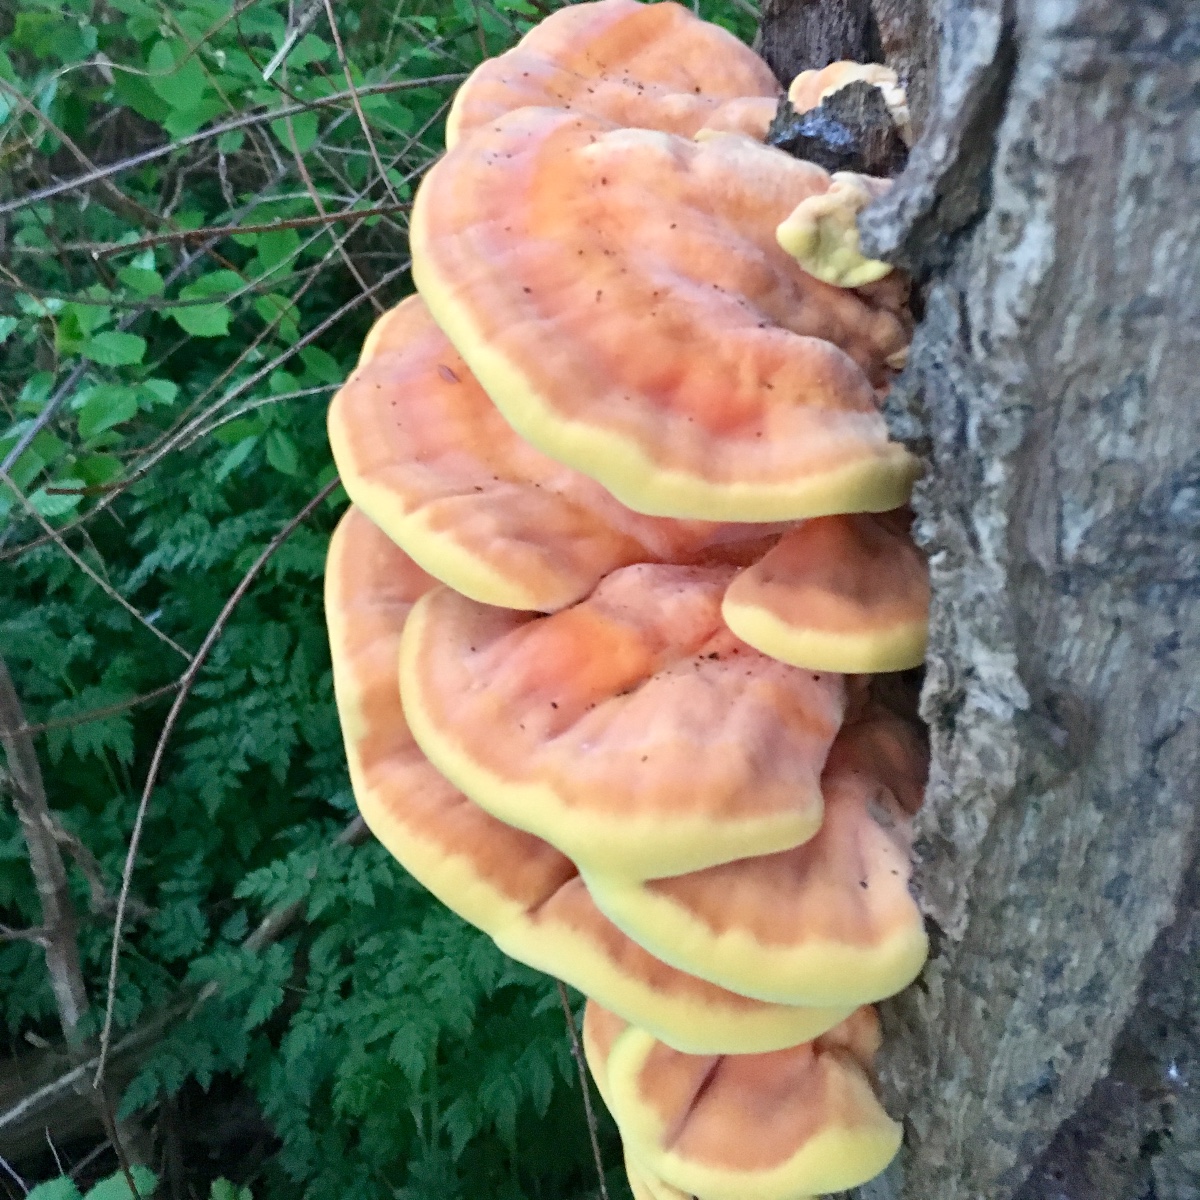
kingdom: Fungi
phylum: Basidiomycota
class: Agaricomycetes
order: Polyporales
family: Laetiporaceae
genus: Laetiporus
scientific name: Laetiporus sulphureus
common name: svovlporesvamp
